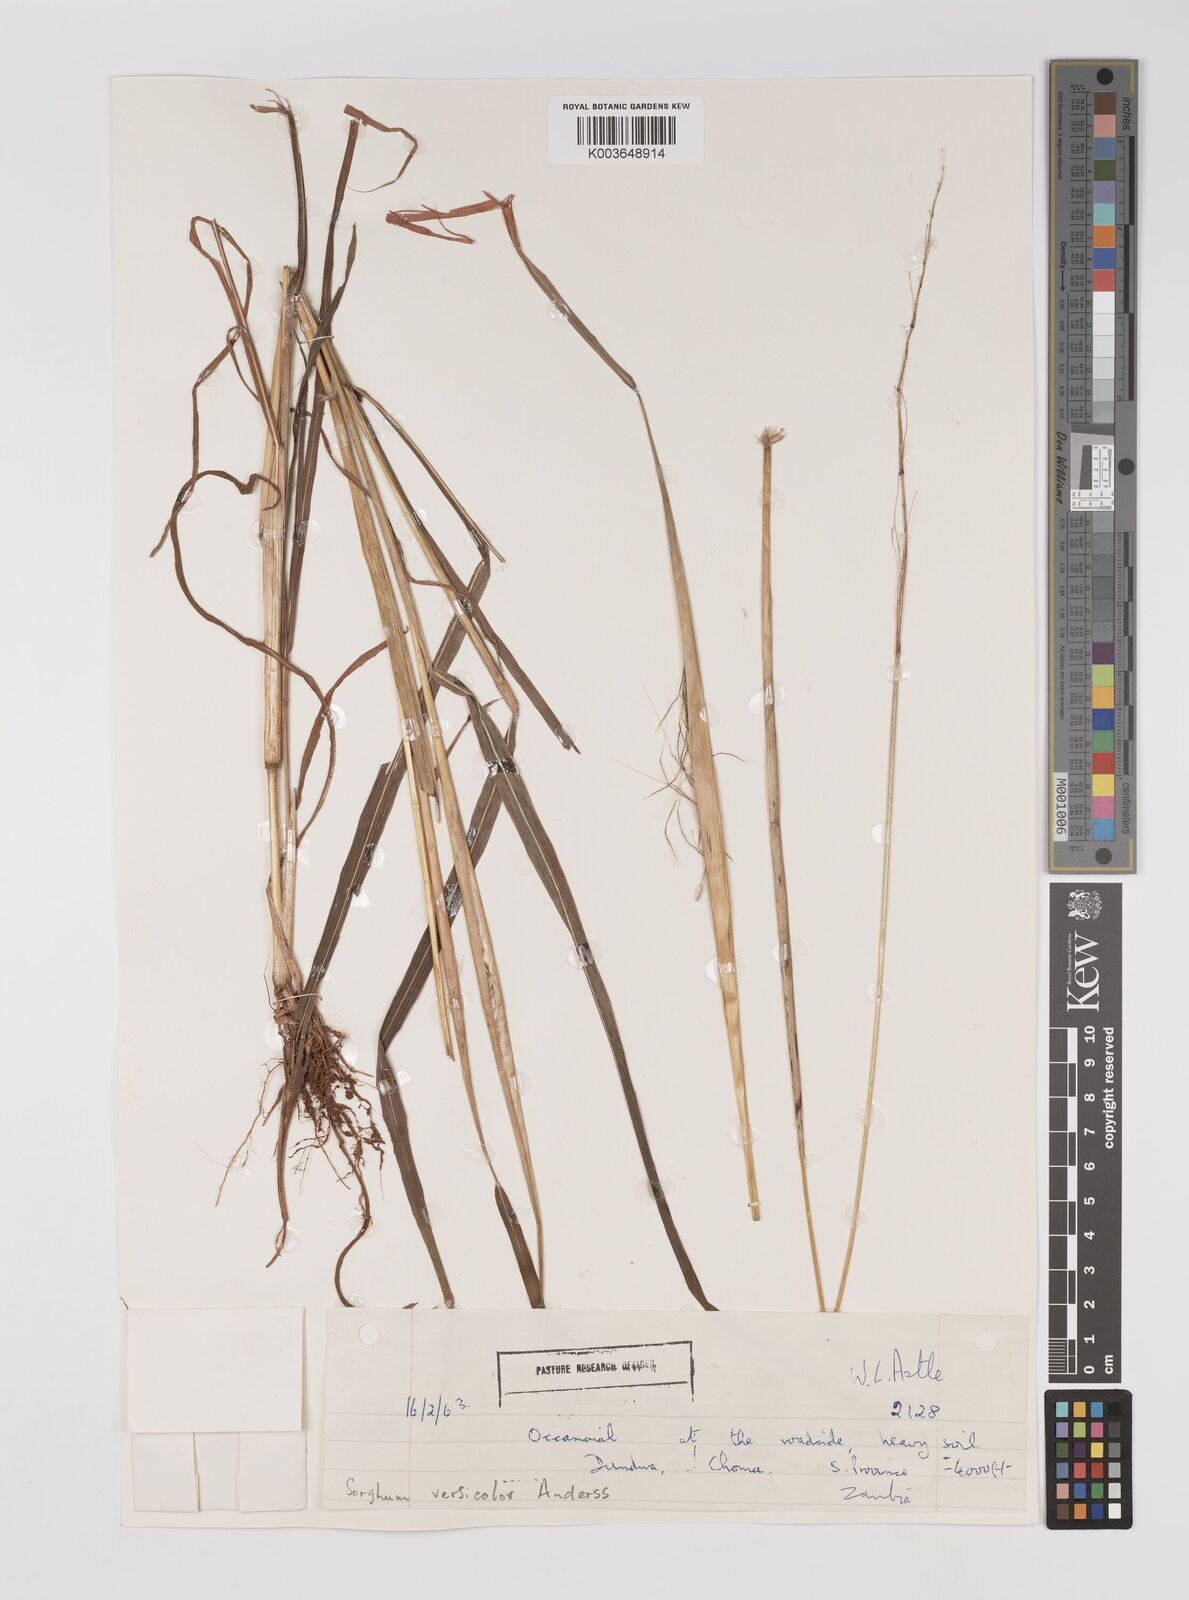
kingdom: Plantae
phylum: Tracheophyta
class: Liliopsida
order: Poales
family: Poaceae
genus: Sarga
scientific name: Sarga versicolor
